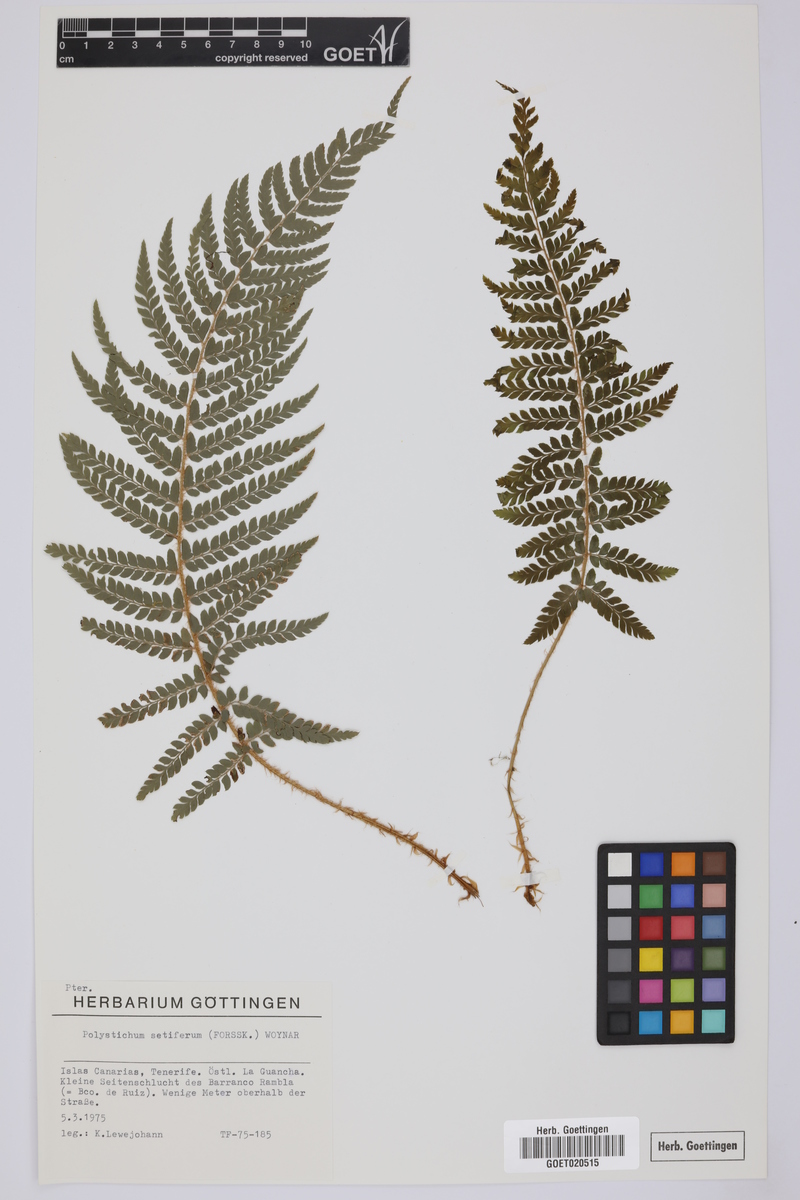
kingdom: Plantae
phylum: Tracheophyta
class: Polypodiopsida
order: Polypodiales
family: Dryopteridaceae
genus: Polystichum
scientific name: Polystichum setiferum
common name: Soft shield-fern
